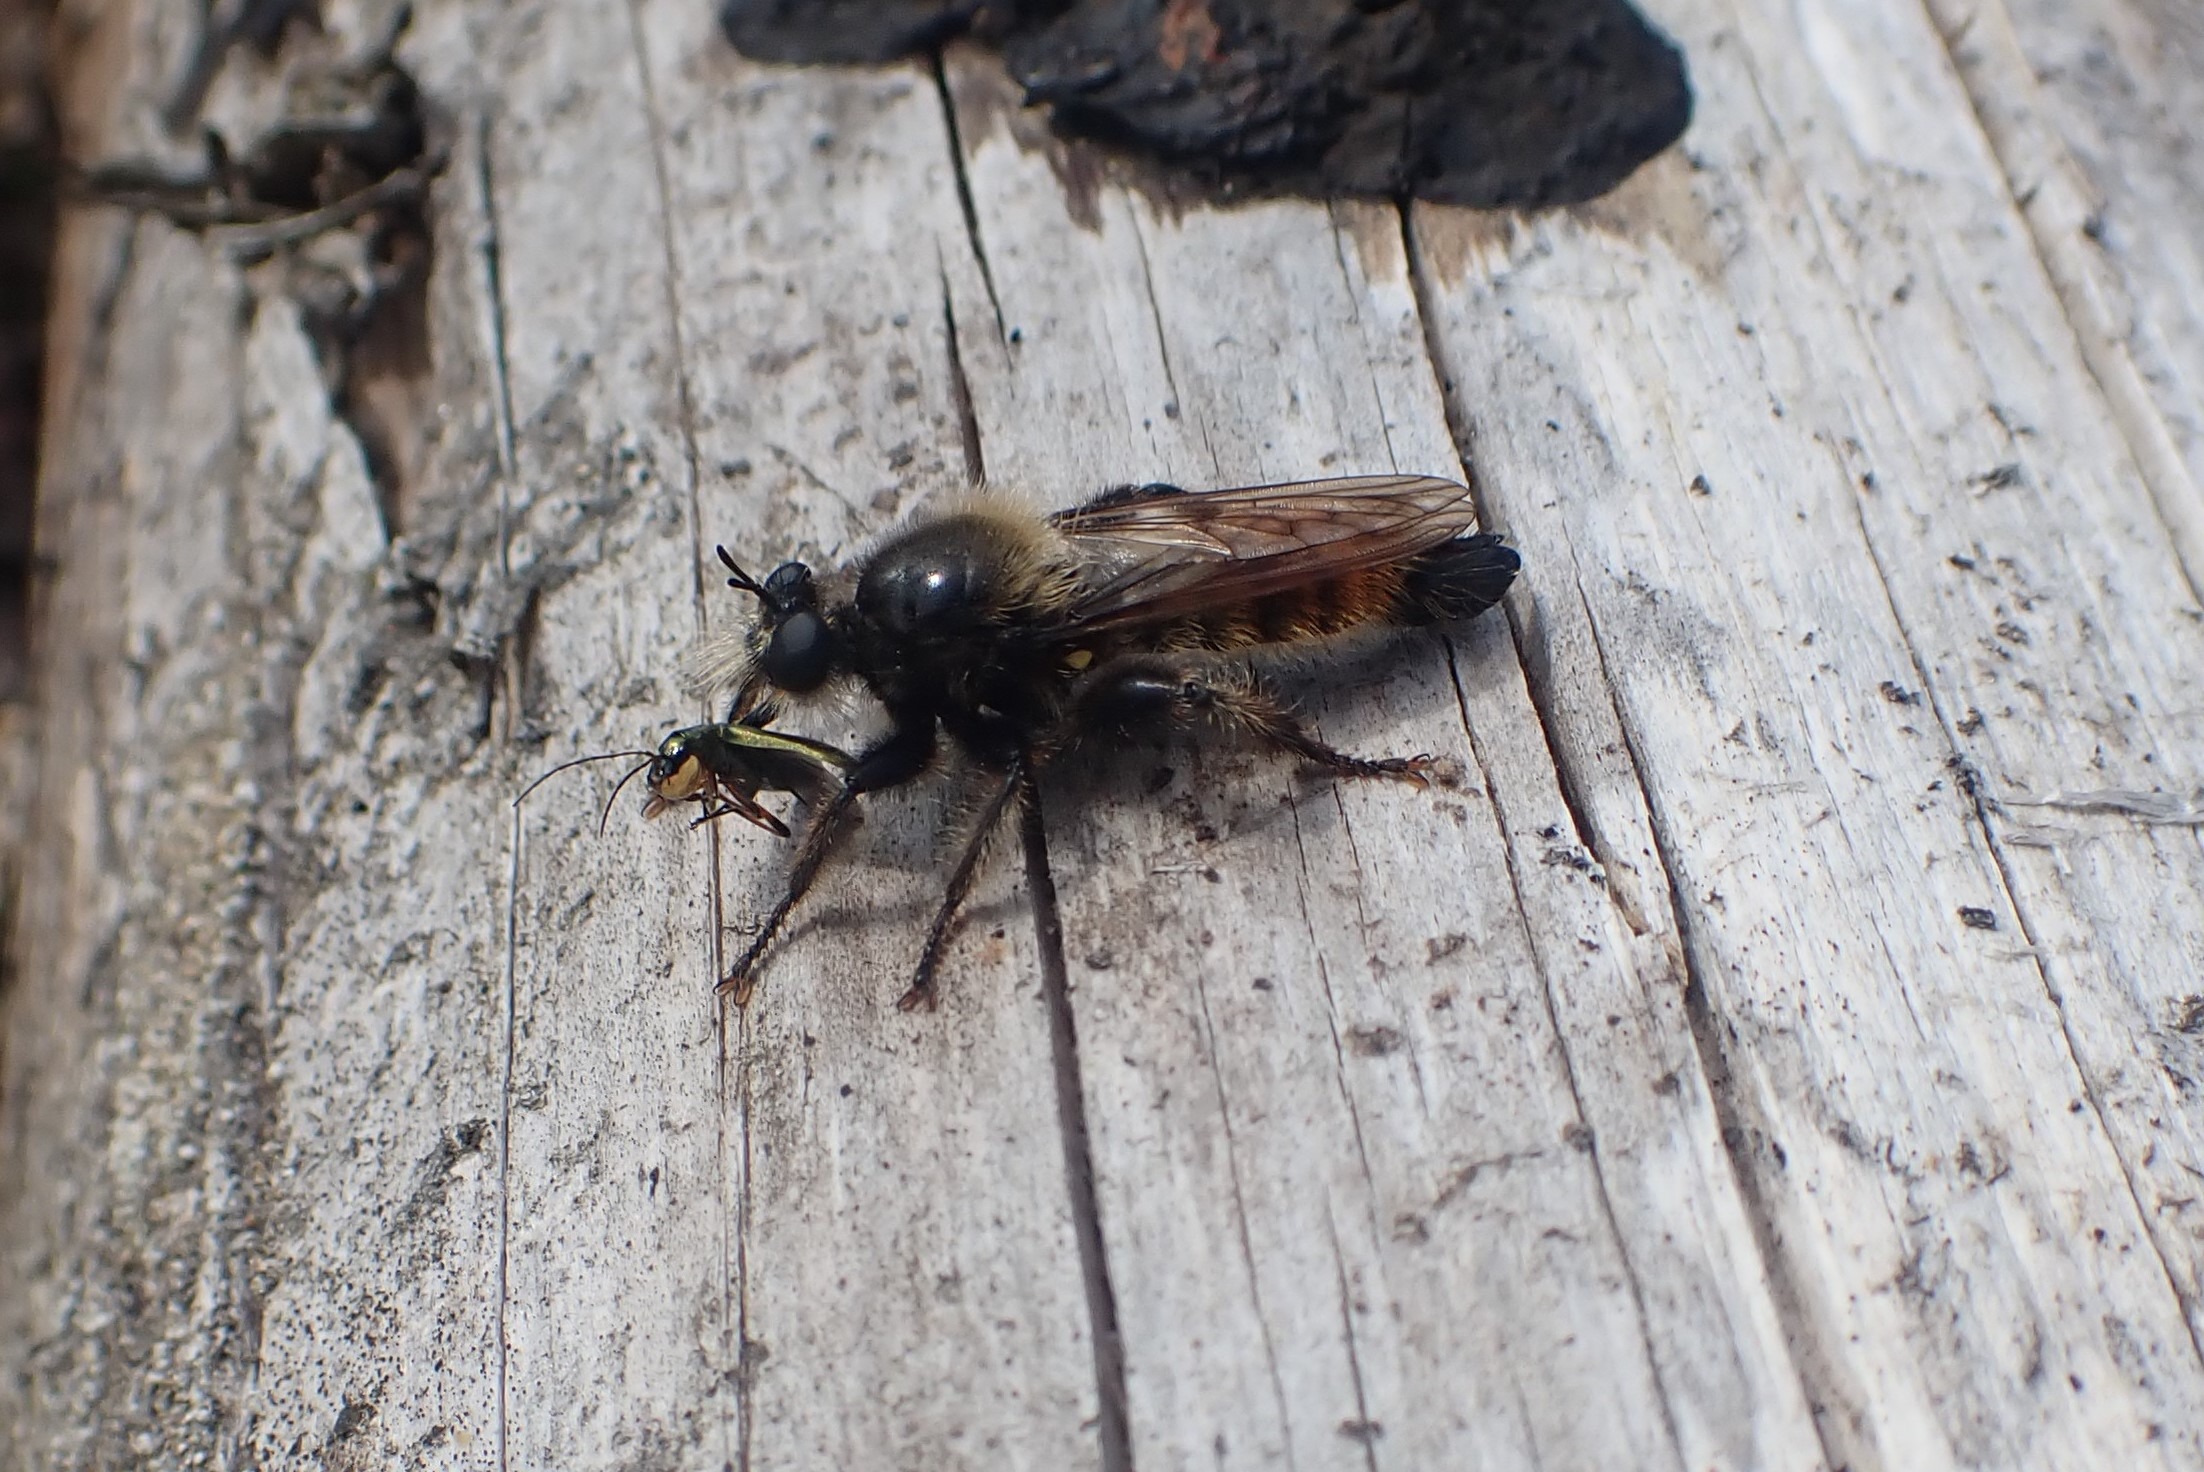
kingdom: Animalia
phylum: Arthropoda
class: Insecta
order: Diptera
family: Asilidae
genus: Laphria
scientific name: Laphria flava
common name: Gul vedrovflue
